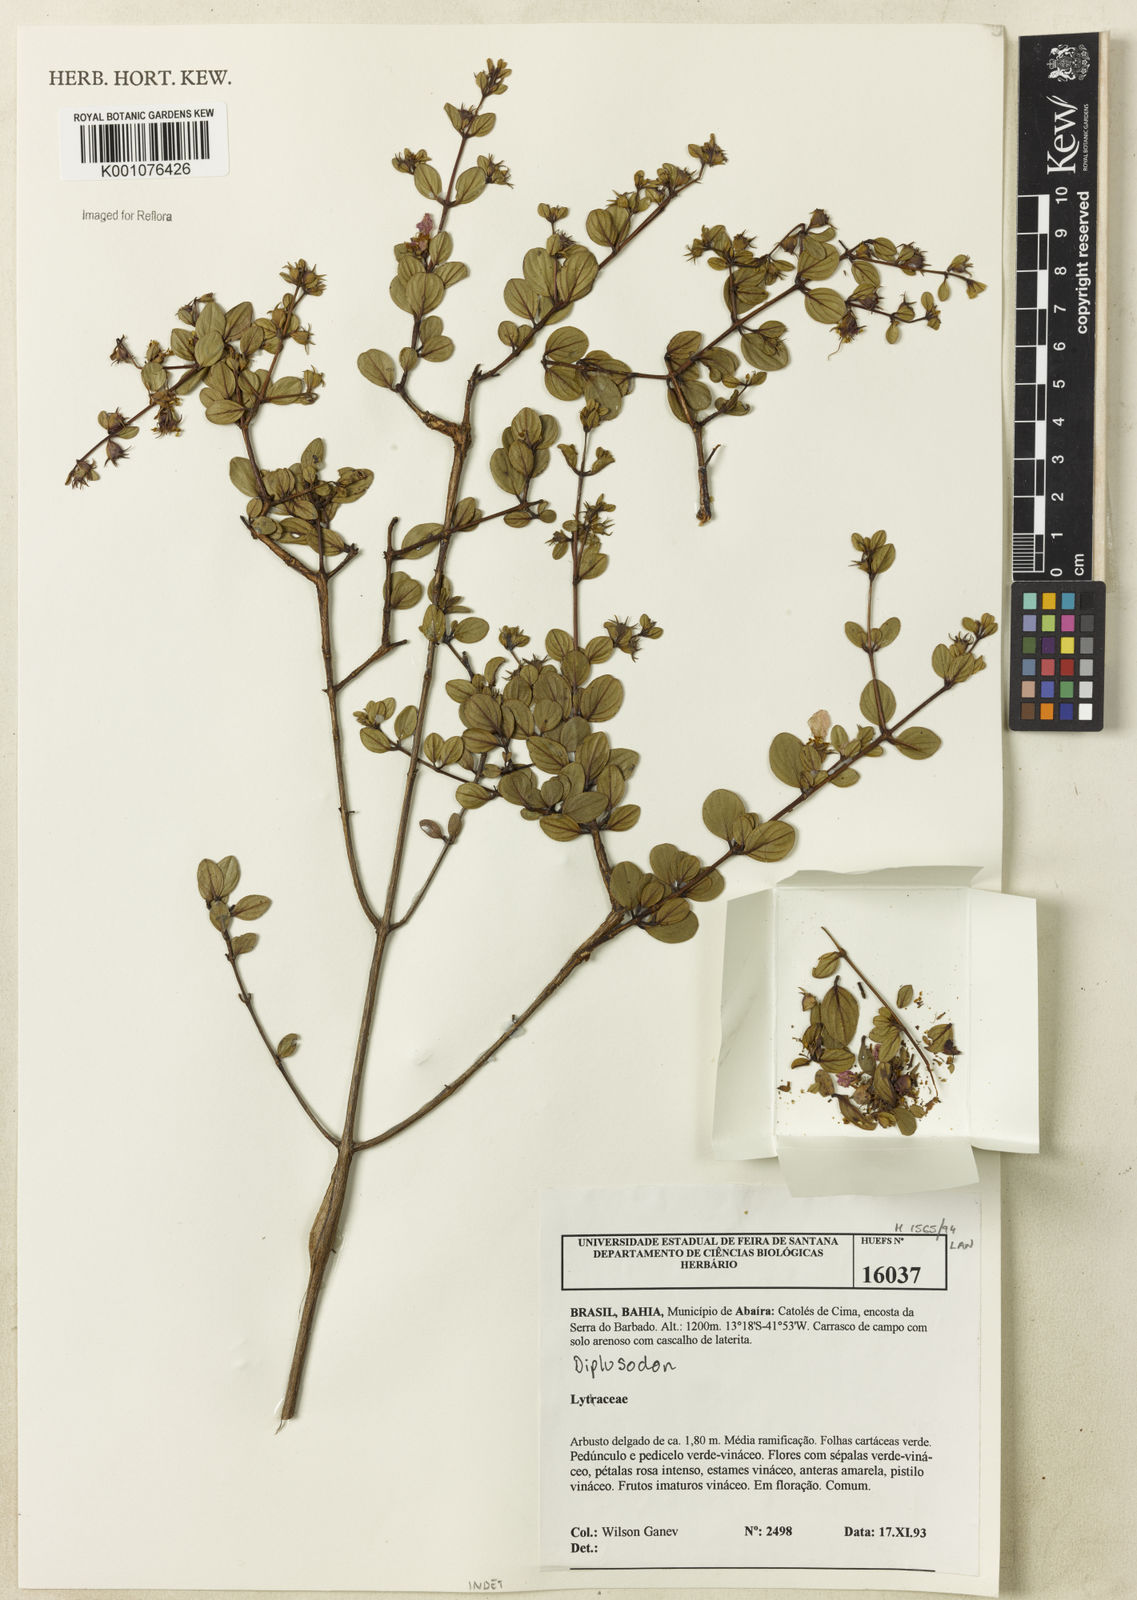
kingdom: Plantae
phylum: Tracheophyta
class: Magnoliopsida
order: Myrtales
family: Lythraceae
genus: Diplusodon
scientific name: Diplusodon
